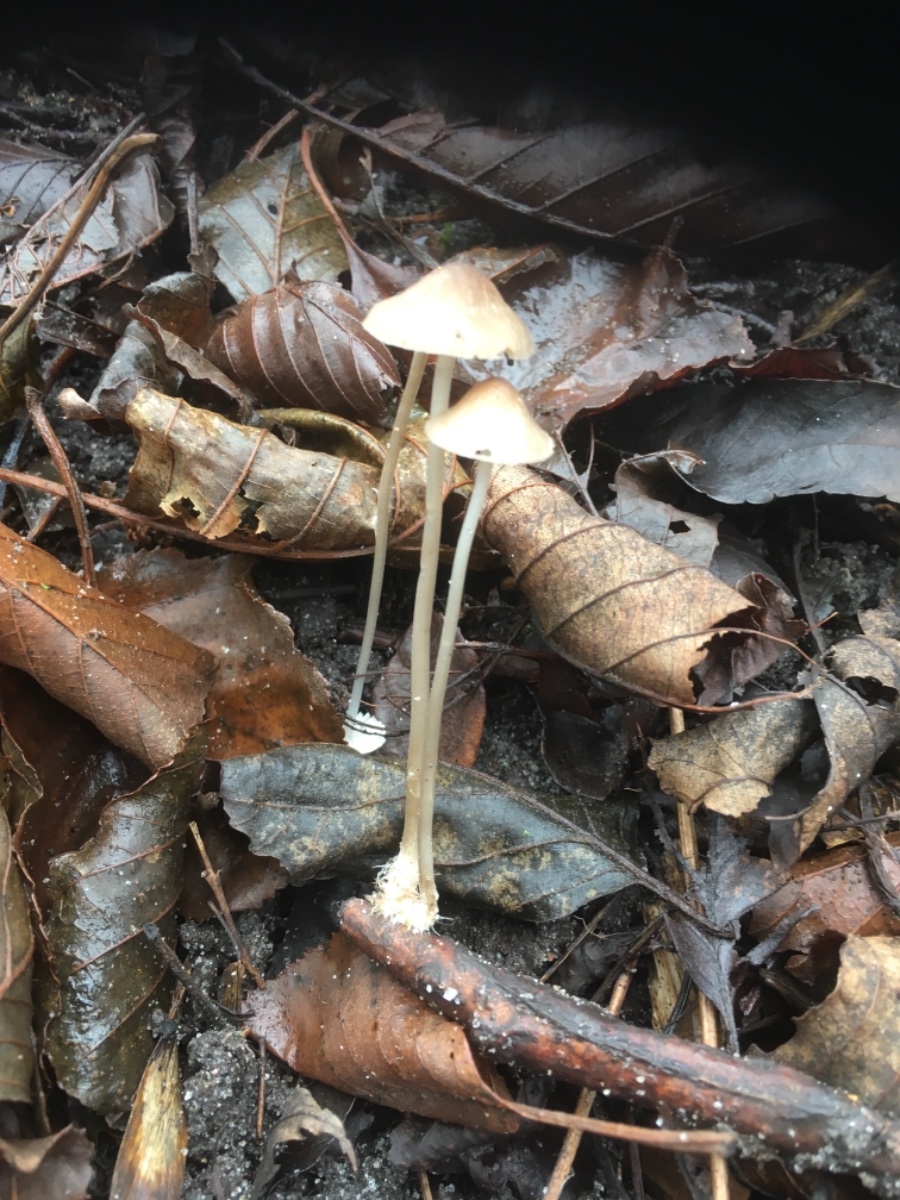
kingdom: Fungi
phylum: Basidiomycota
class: Agaricomycetes
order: Agaricales
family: Mycenaceae
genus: Mycena
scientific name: Mycena vitilis
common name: blankstokket huesvamp
